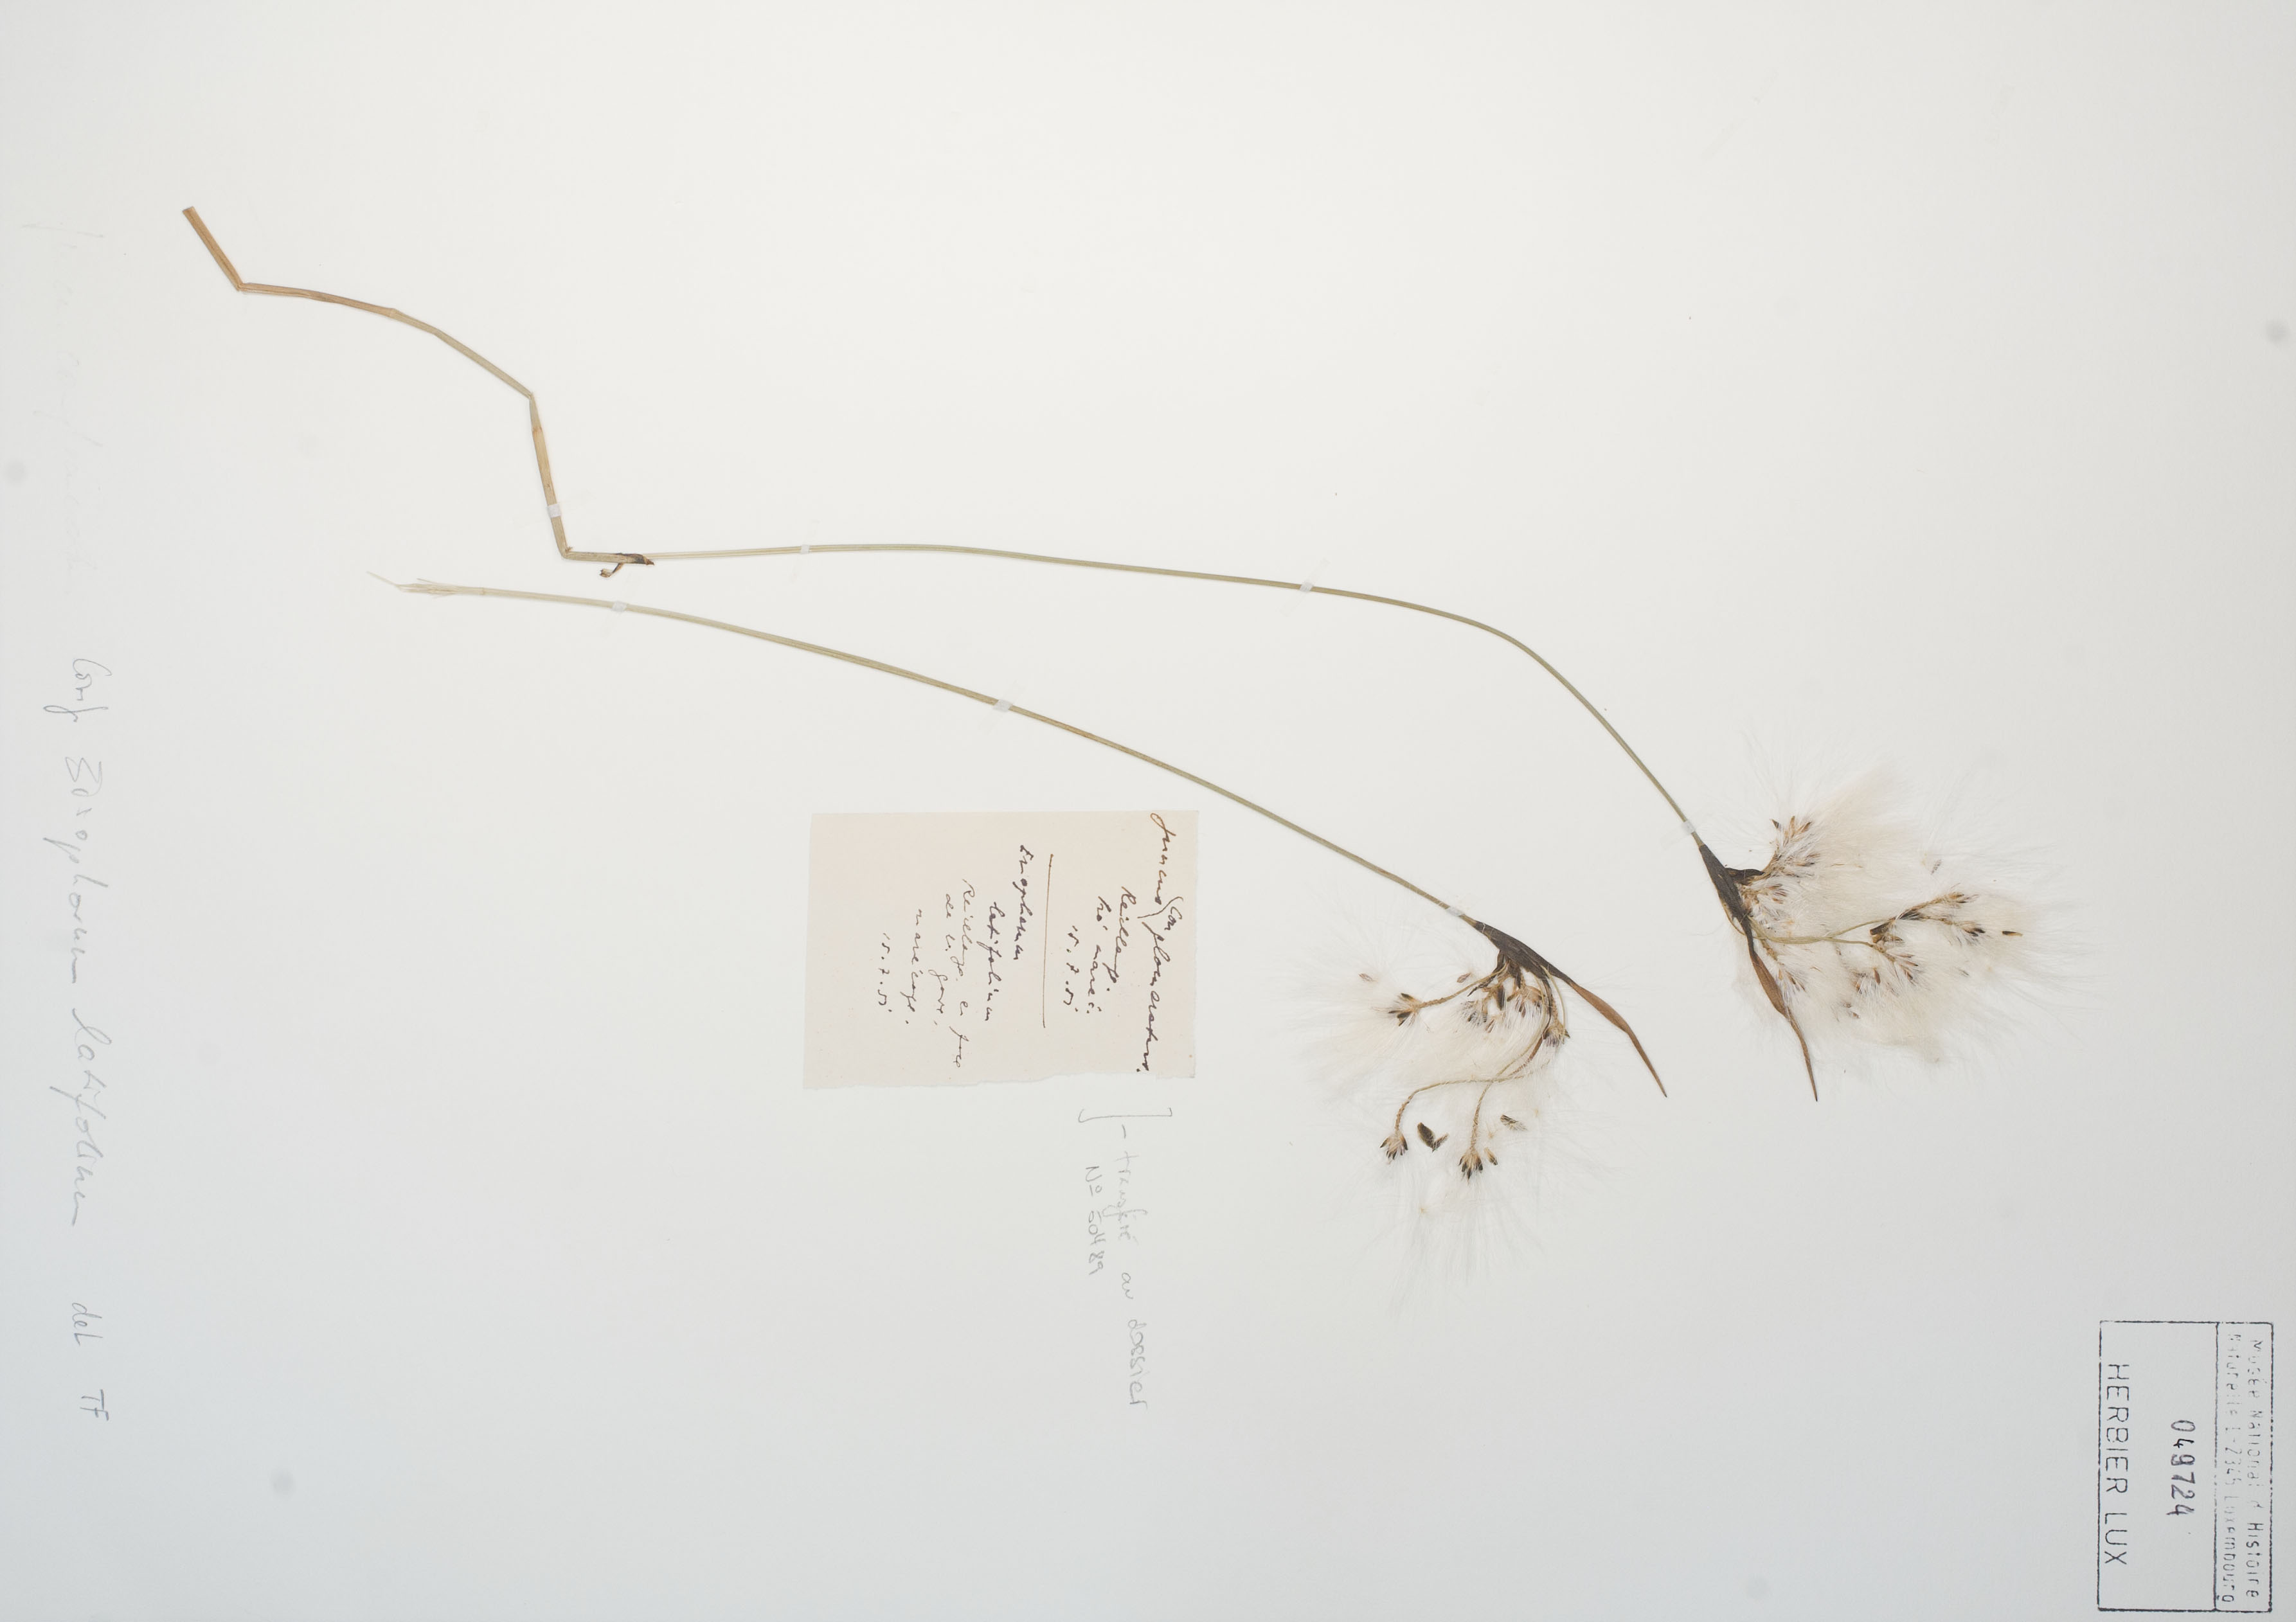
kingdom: Plantae
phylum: Tracheophyta
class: Liliopsida
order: Poales
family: Cyperaceae
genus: Eriophorum
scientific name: Eriophorum latifolium
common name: Broad-leaved cottongrass
